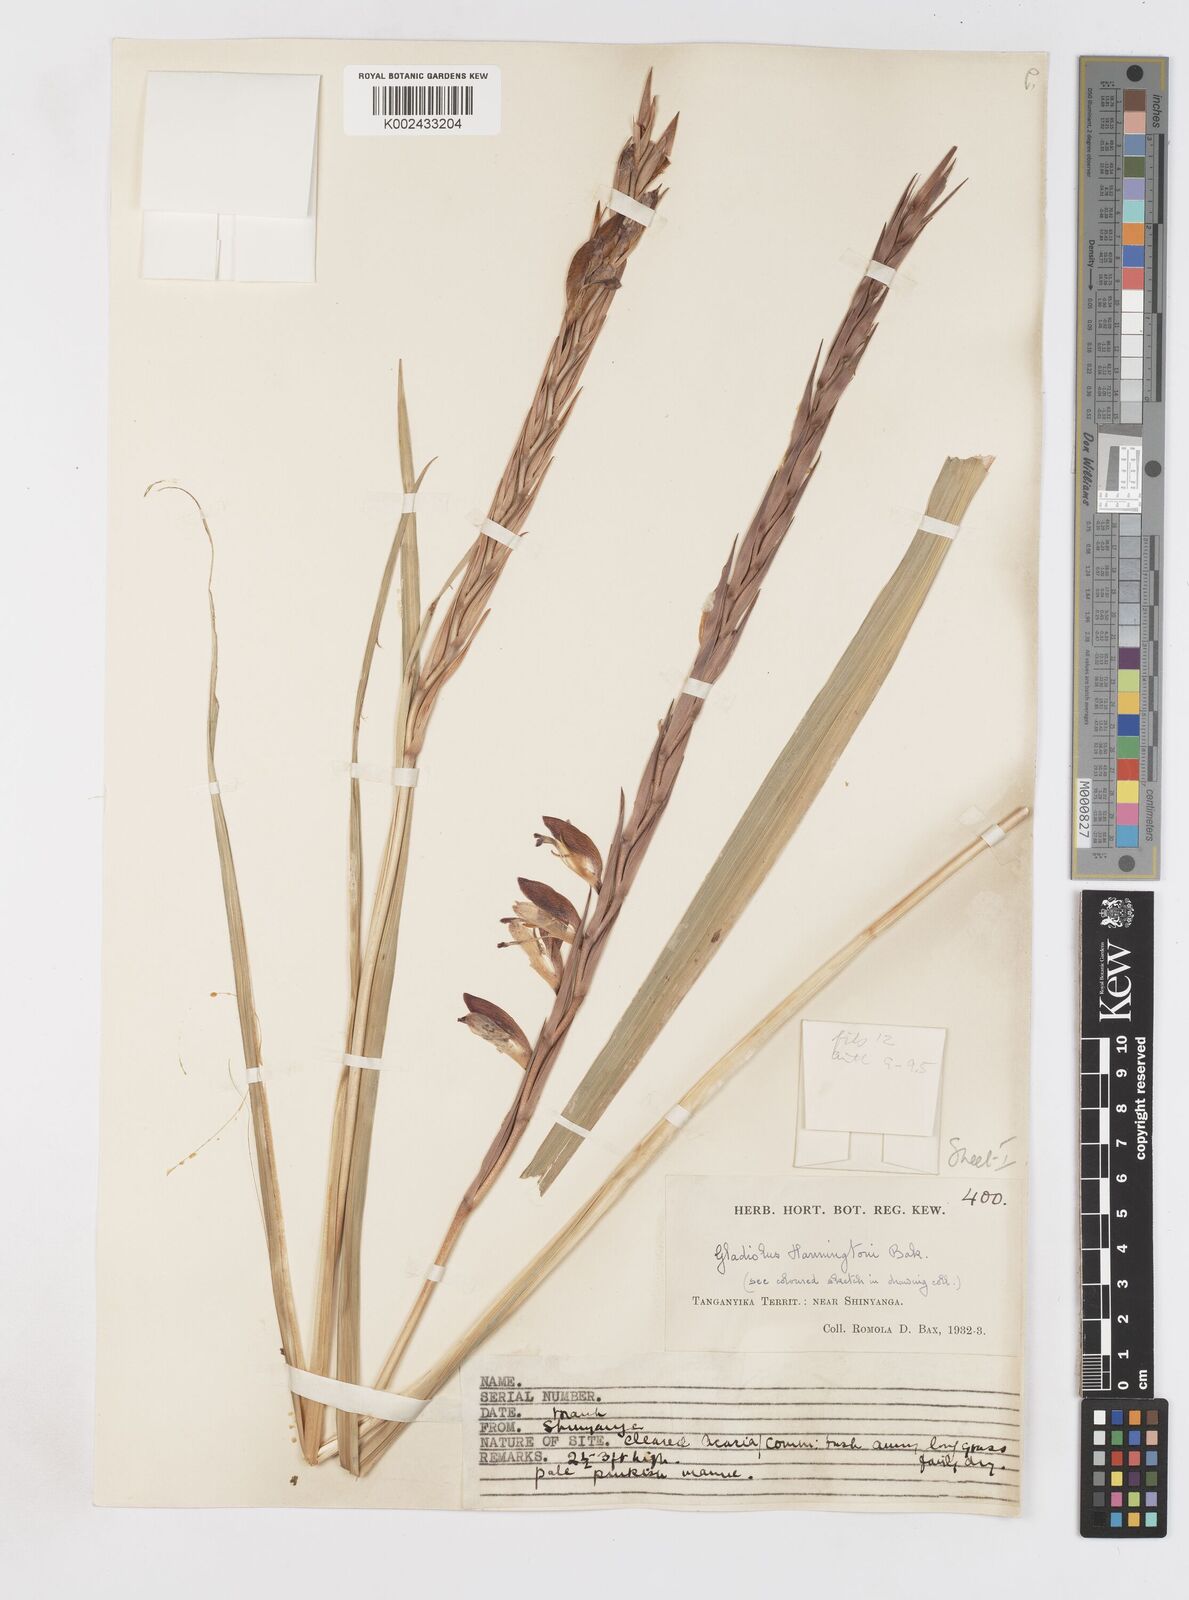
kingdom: Plantae
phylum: Tracheophyta
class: Liliopsida
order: Asparagales
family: Iridaceae
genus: Gladiolus
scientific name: Gladiolus gregarius
